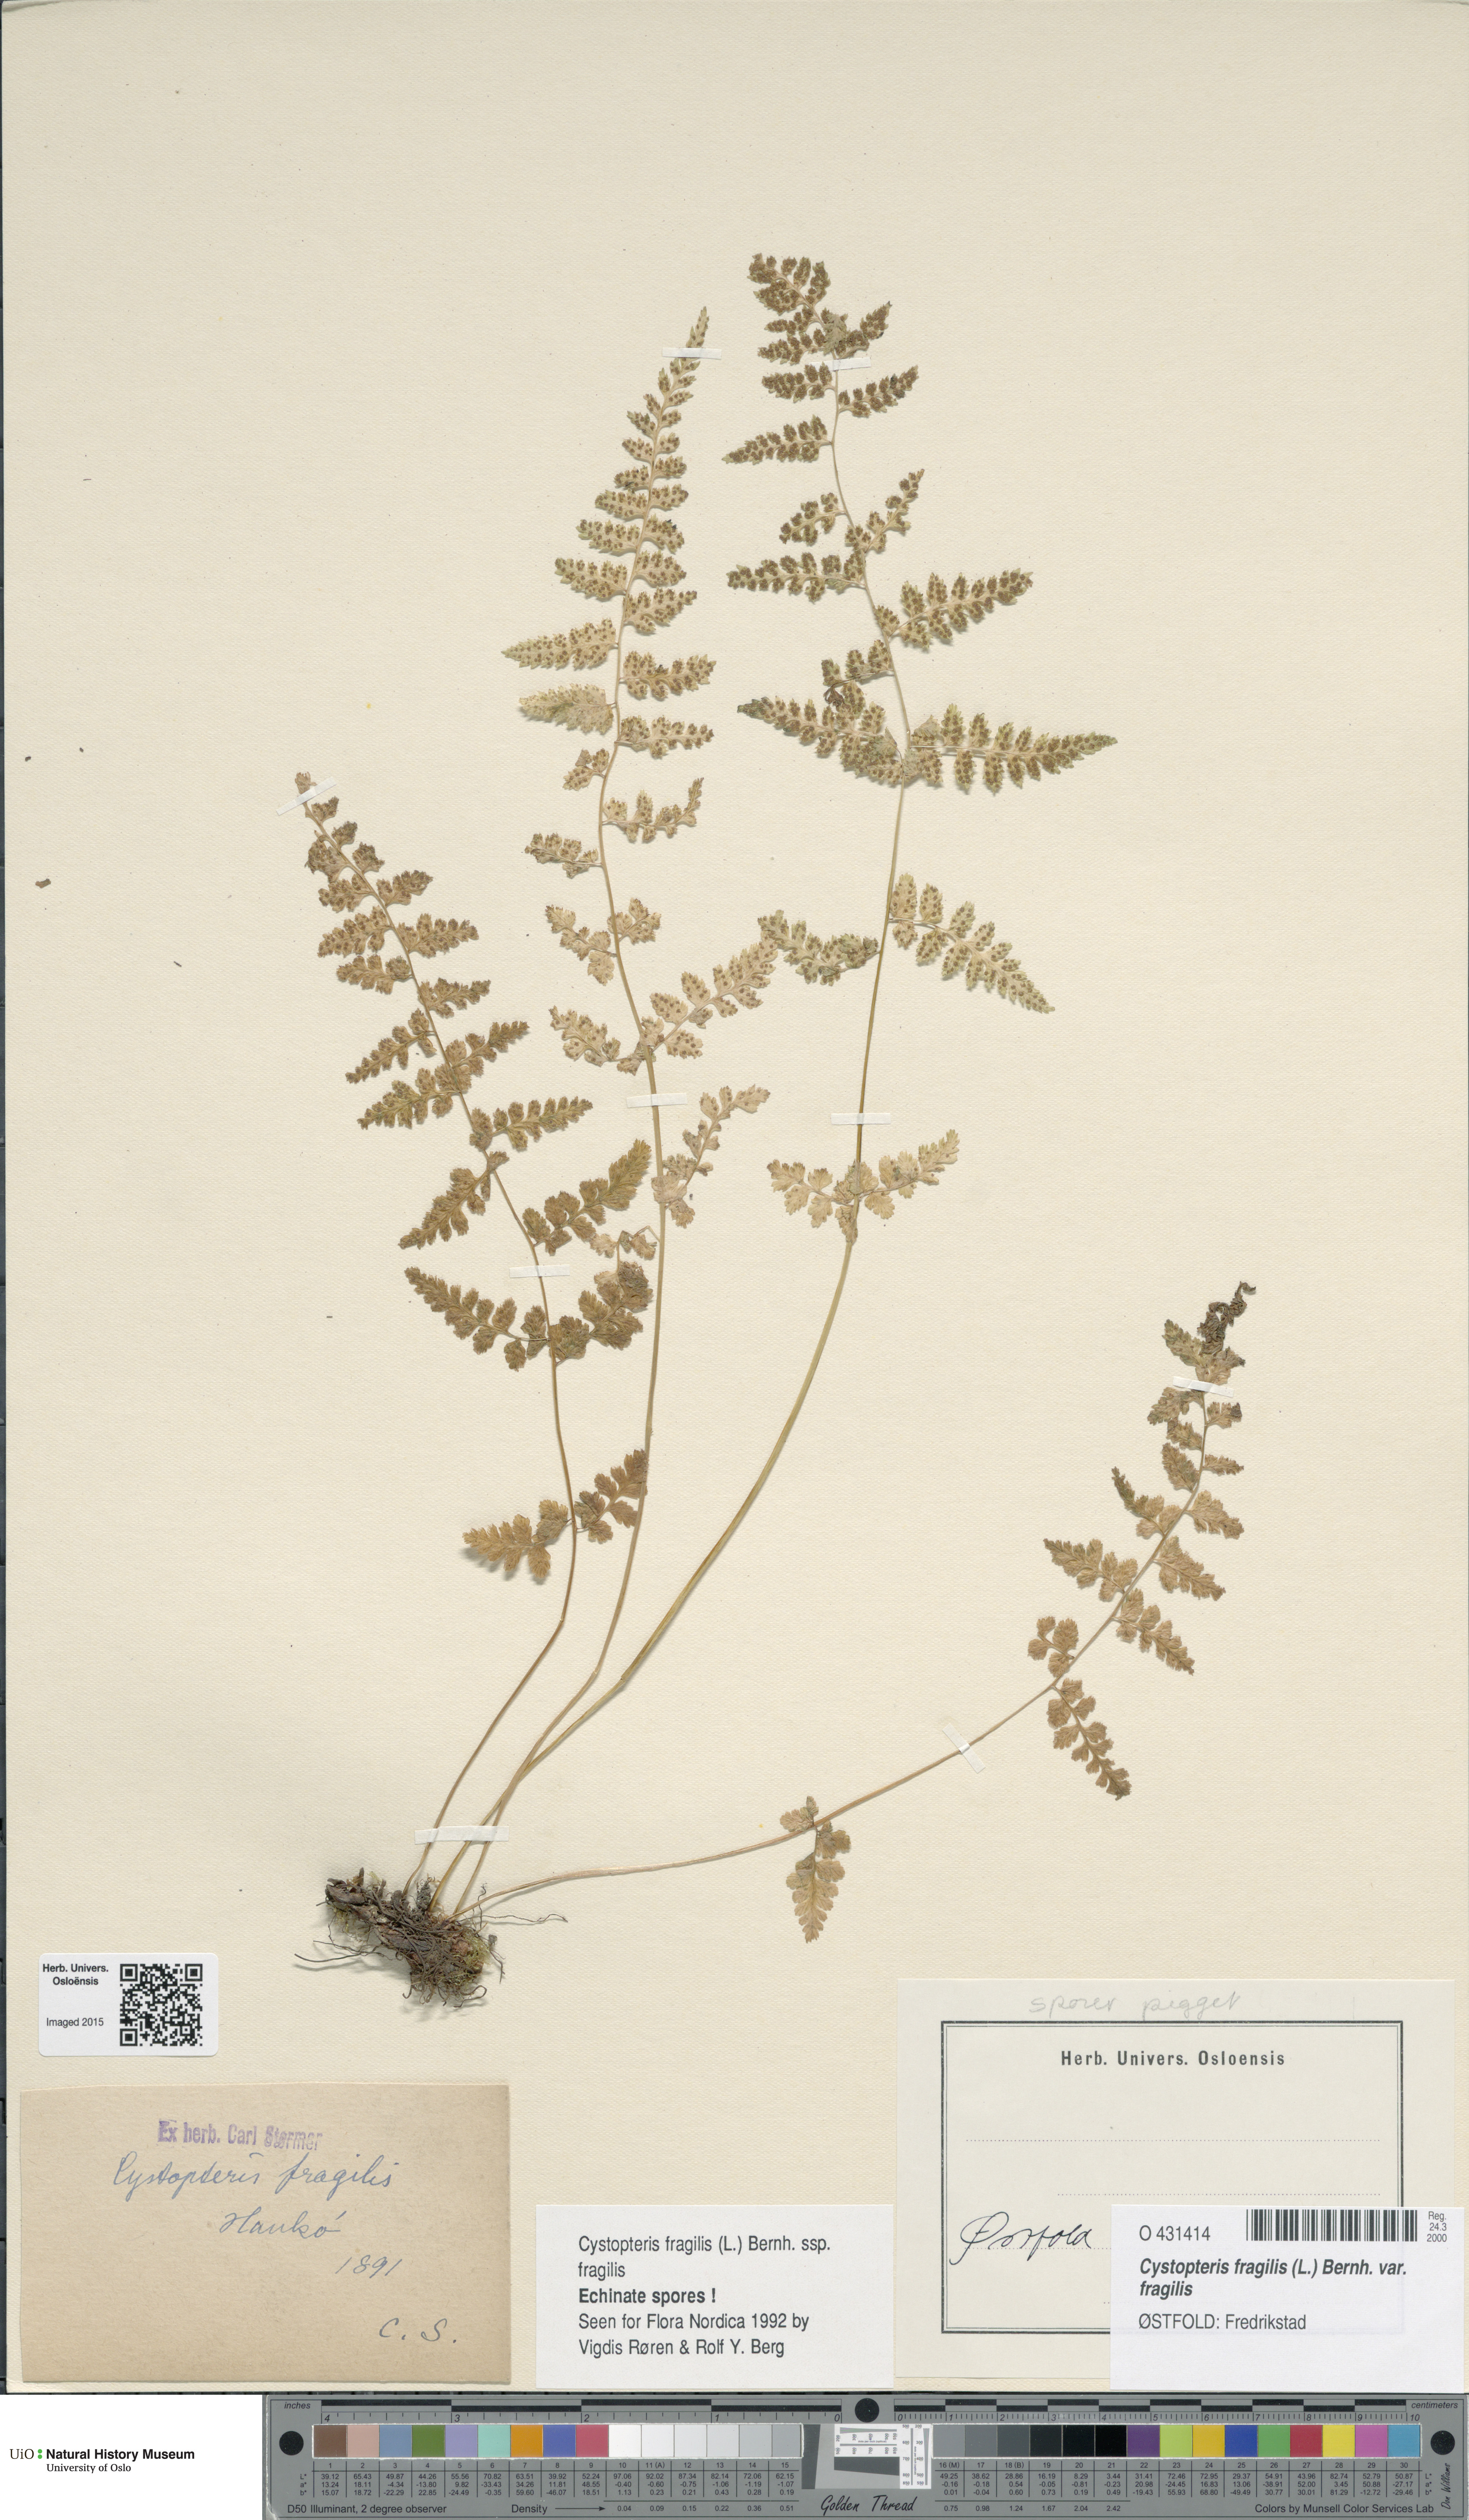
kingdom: Plantae
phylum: Tracheophyta
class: Polypodiopsida
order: Polypodiales
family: Cystopteridaceae
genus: Cystopteris
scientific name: Cystopteris fragilis
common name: Brittle bladder fern
